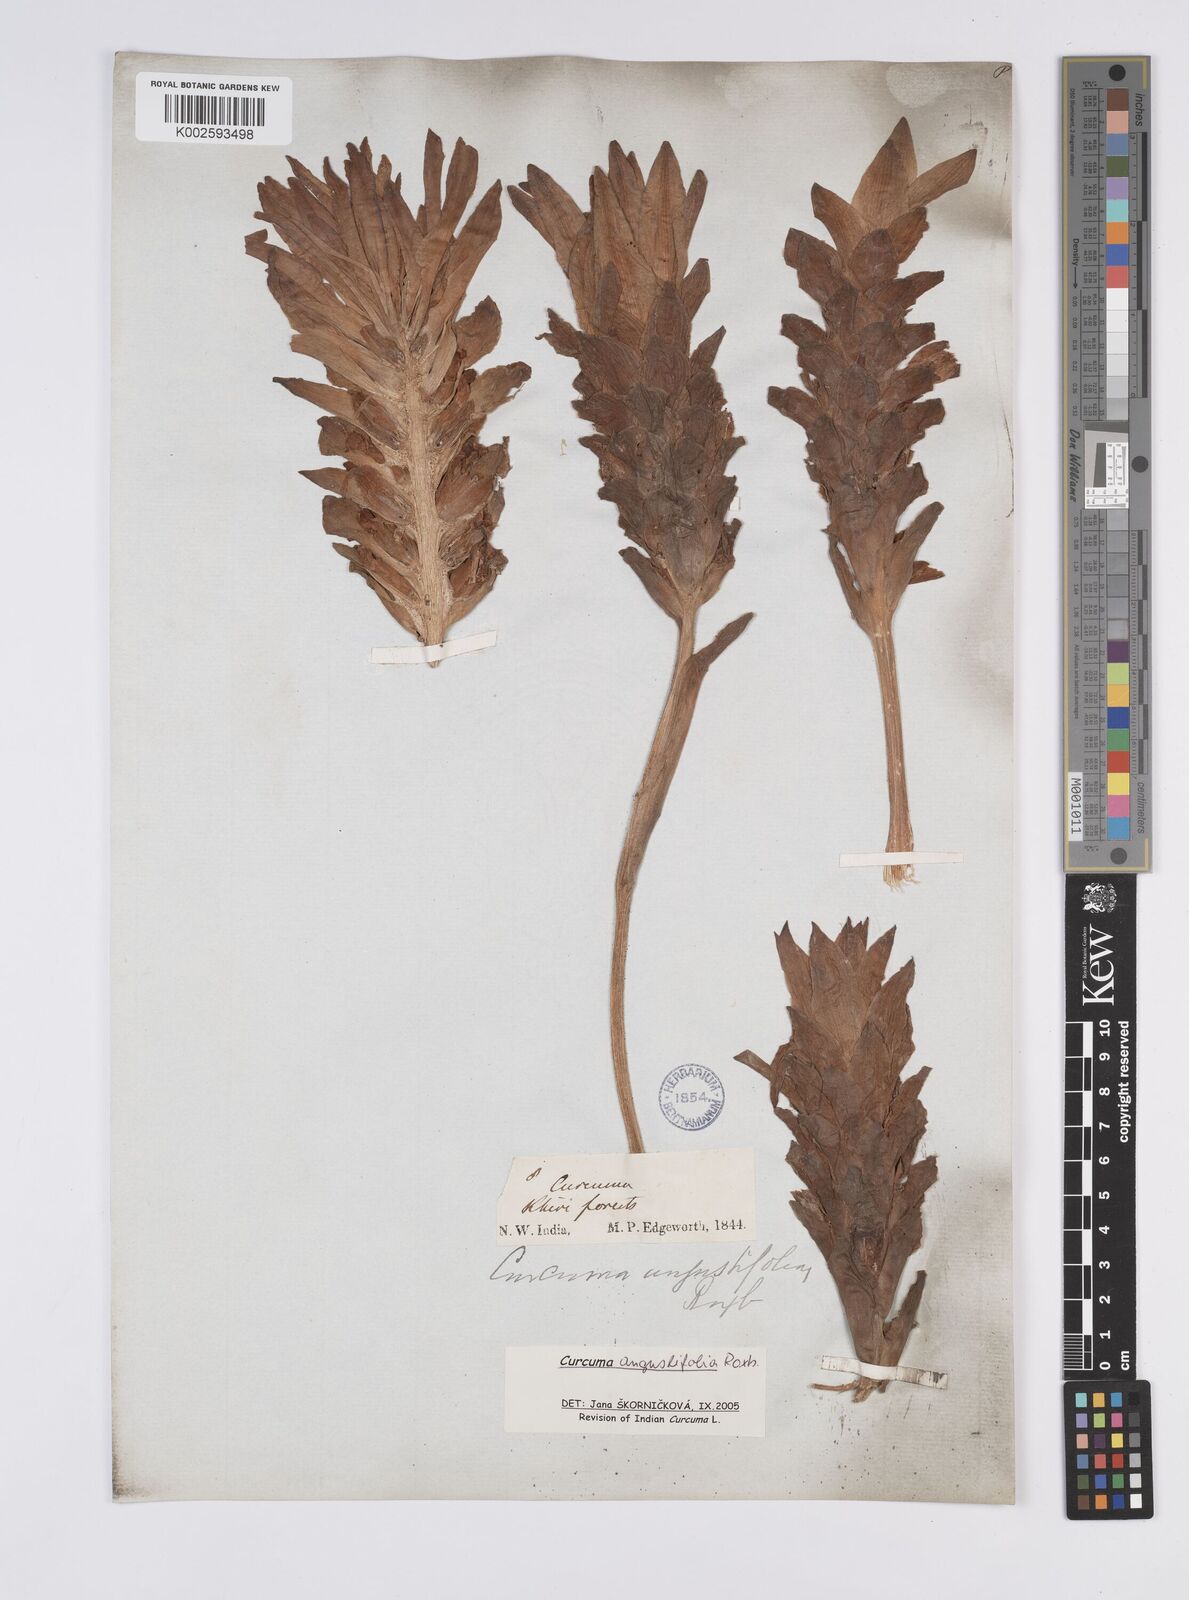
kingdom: Plantae
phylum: Tracheophyta
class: Liliopsida
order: Zingiberales
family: Zingiberaceae
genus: Curcuma
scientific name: Curcuma angustifolia
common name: East indian arrowroot
